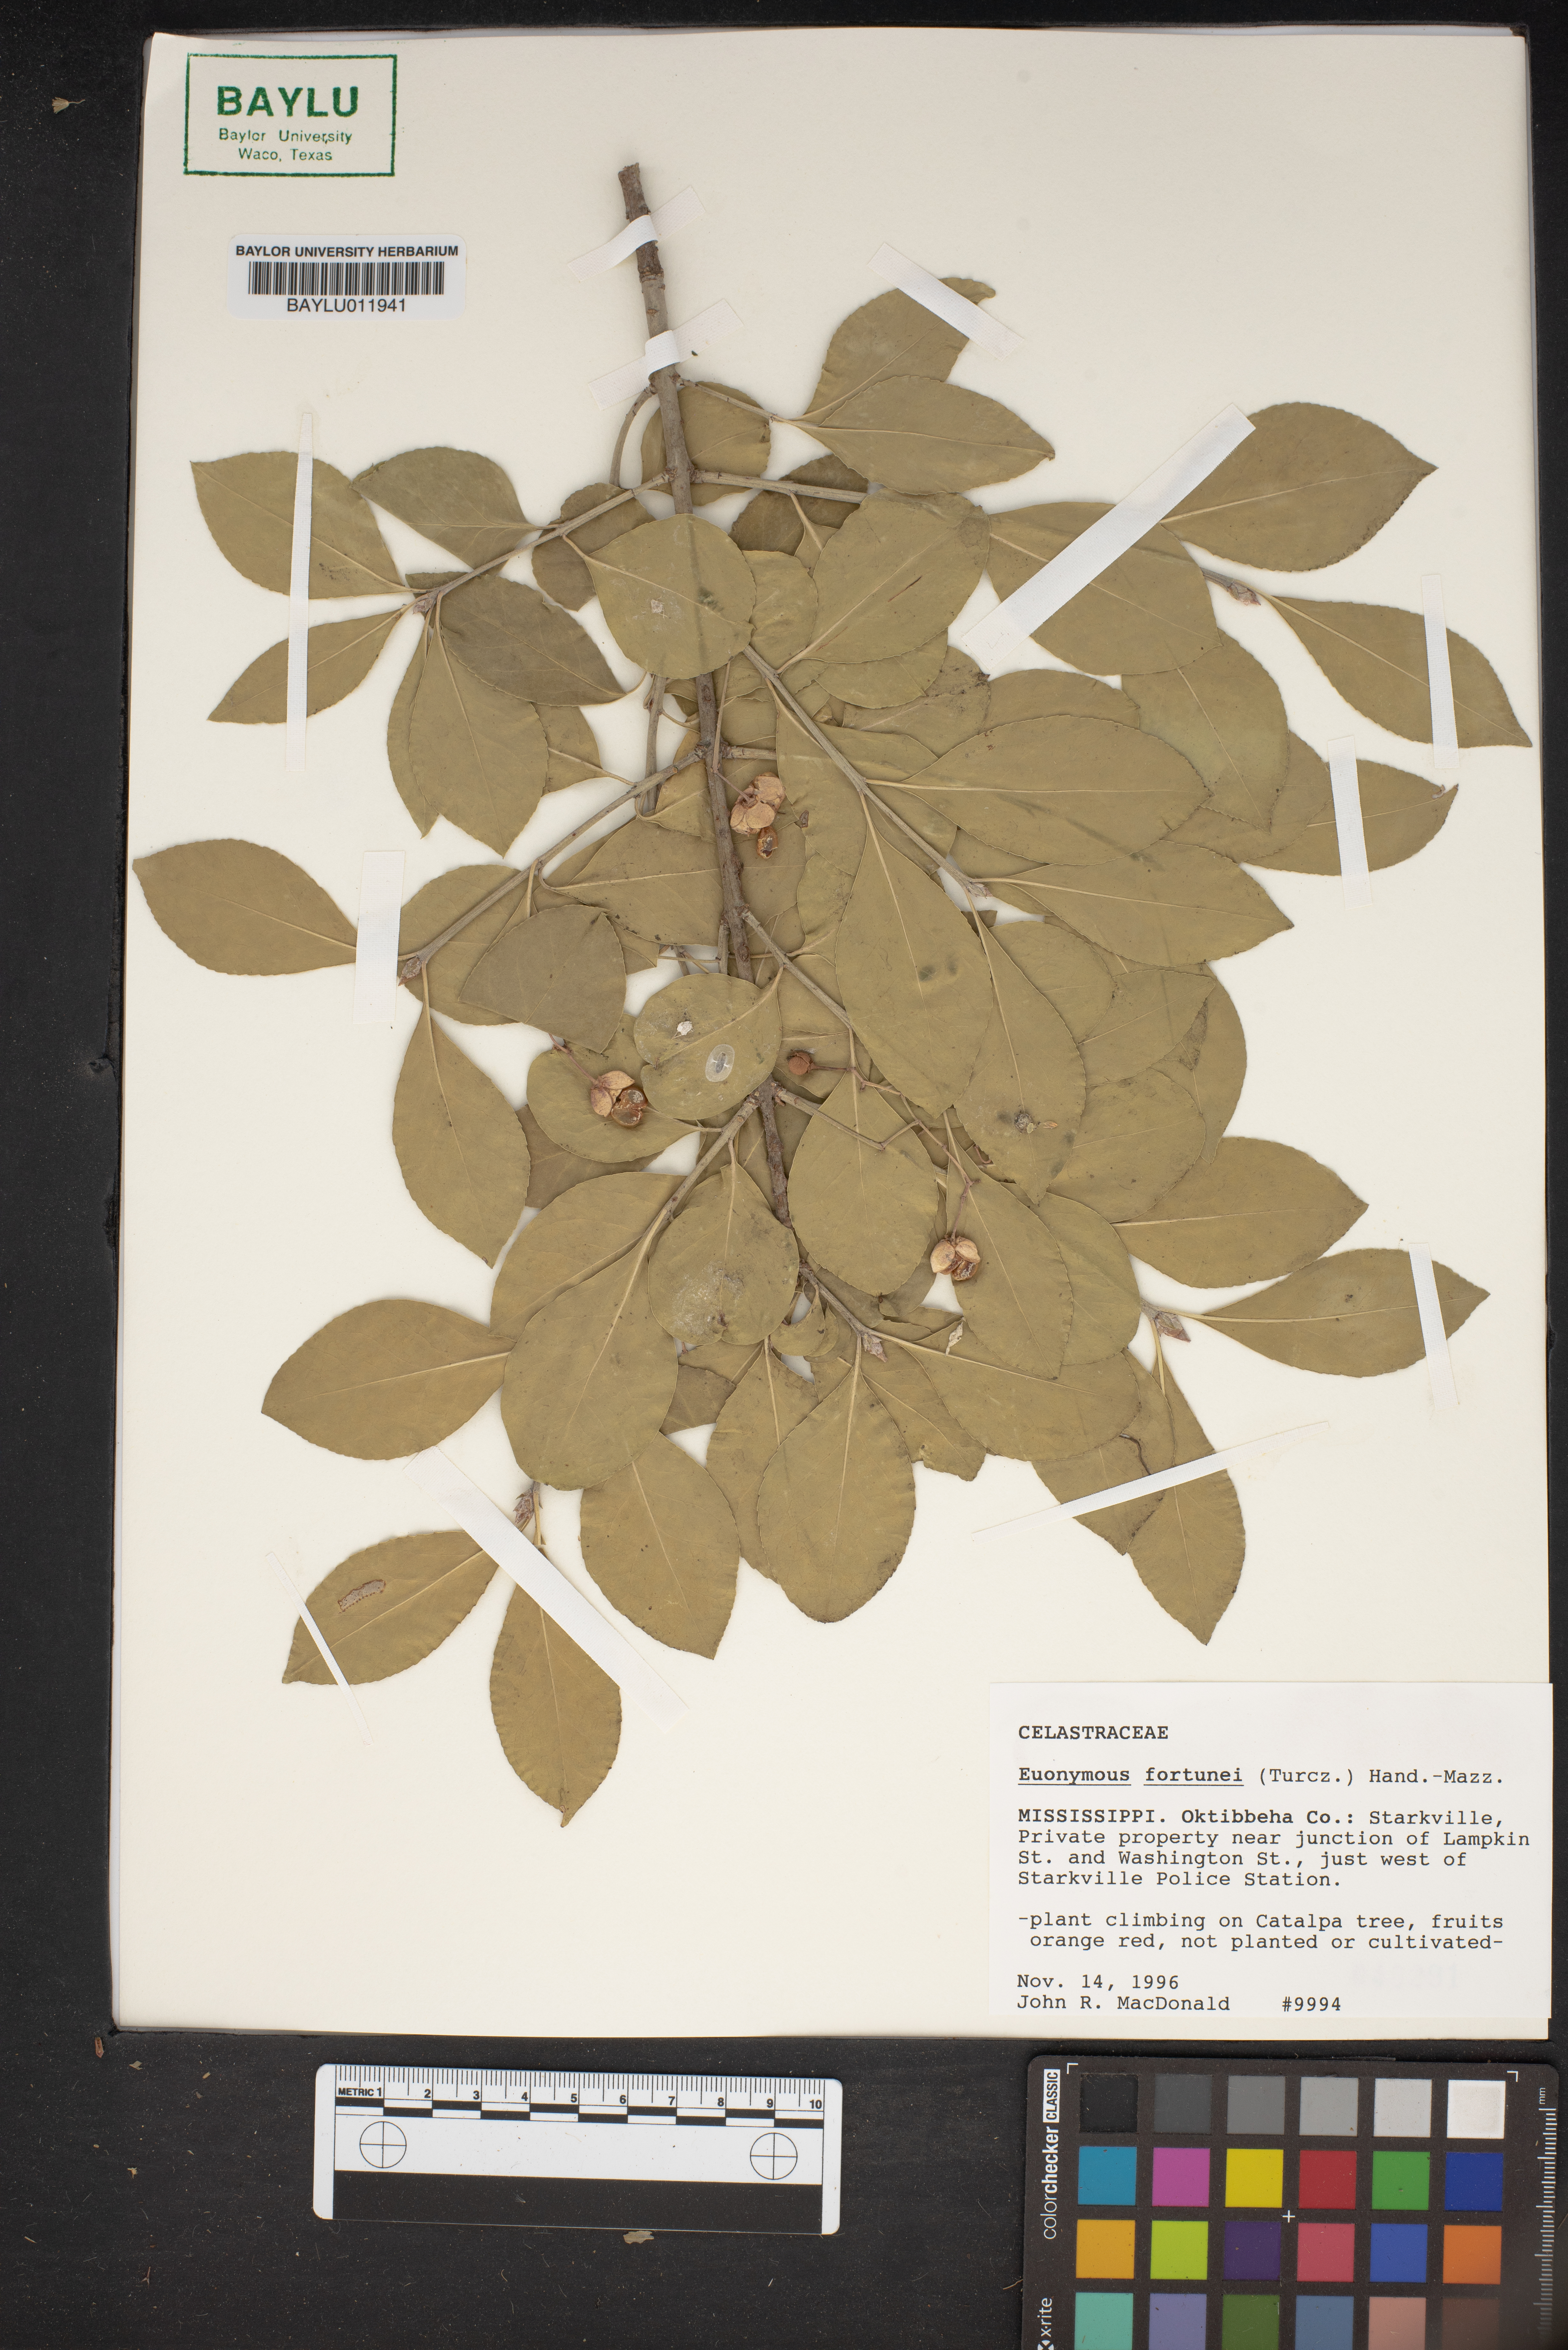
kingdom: Plantae
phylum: Tracheophyta
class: Magnoliopsida
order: Celastrales
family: Celastraceae
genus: Euonymus
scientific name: Euonymus fortunei
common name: Climbing euonymus
